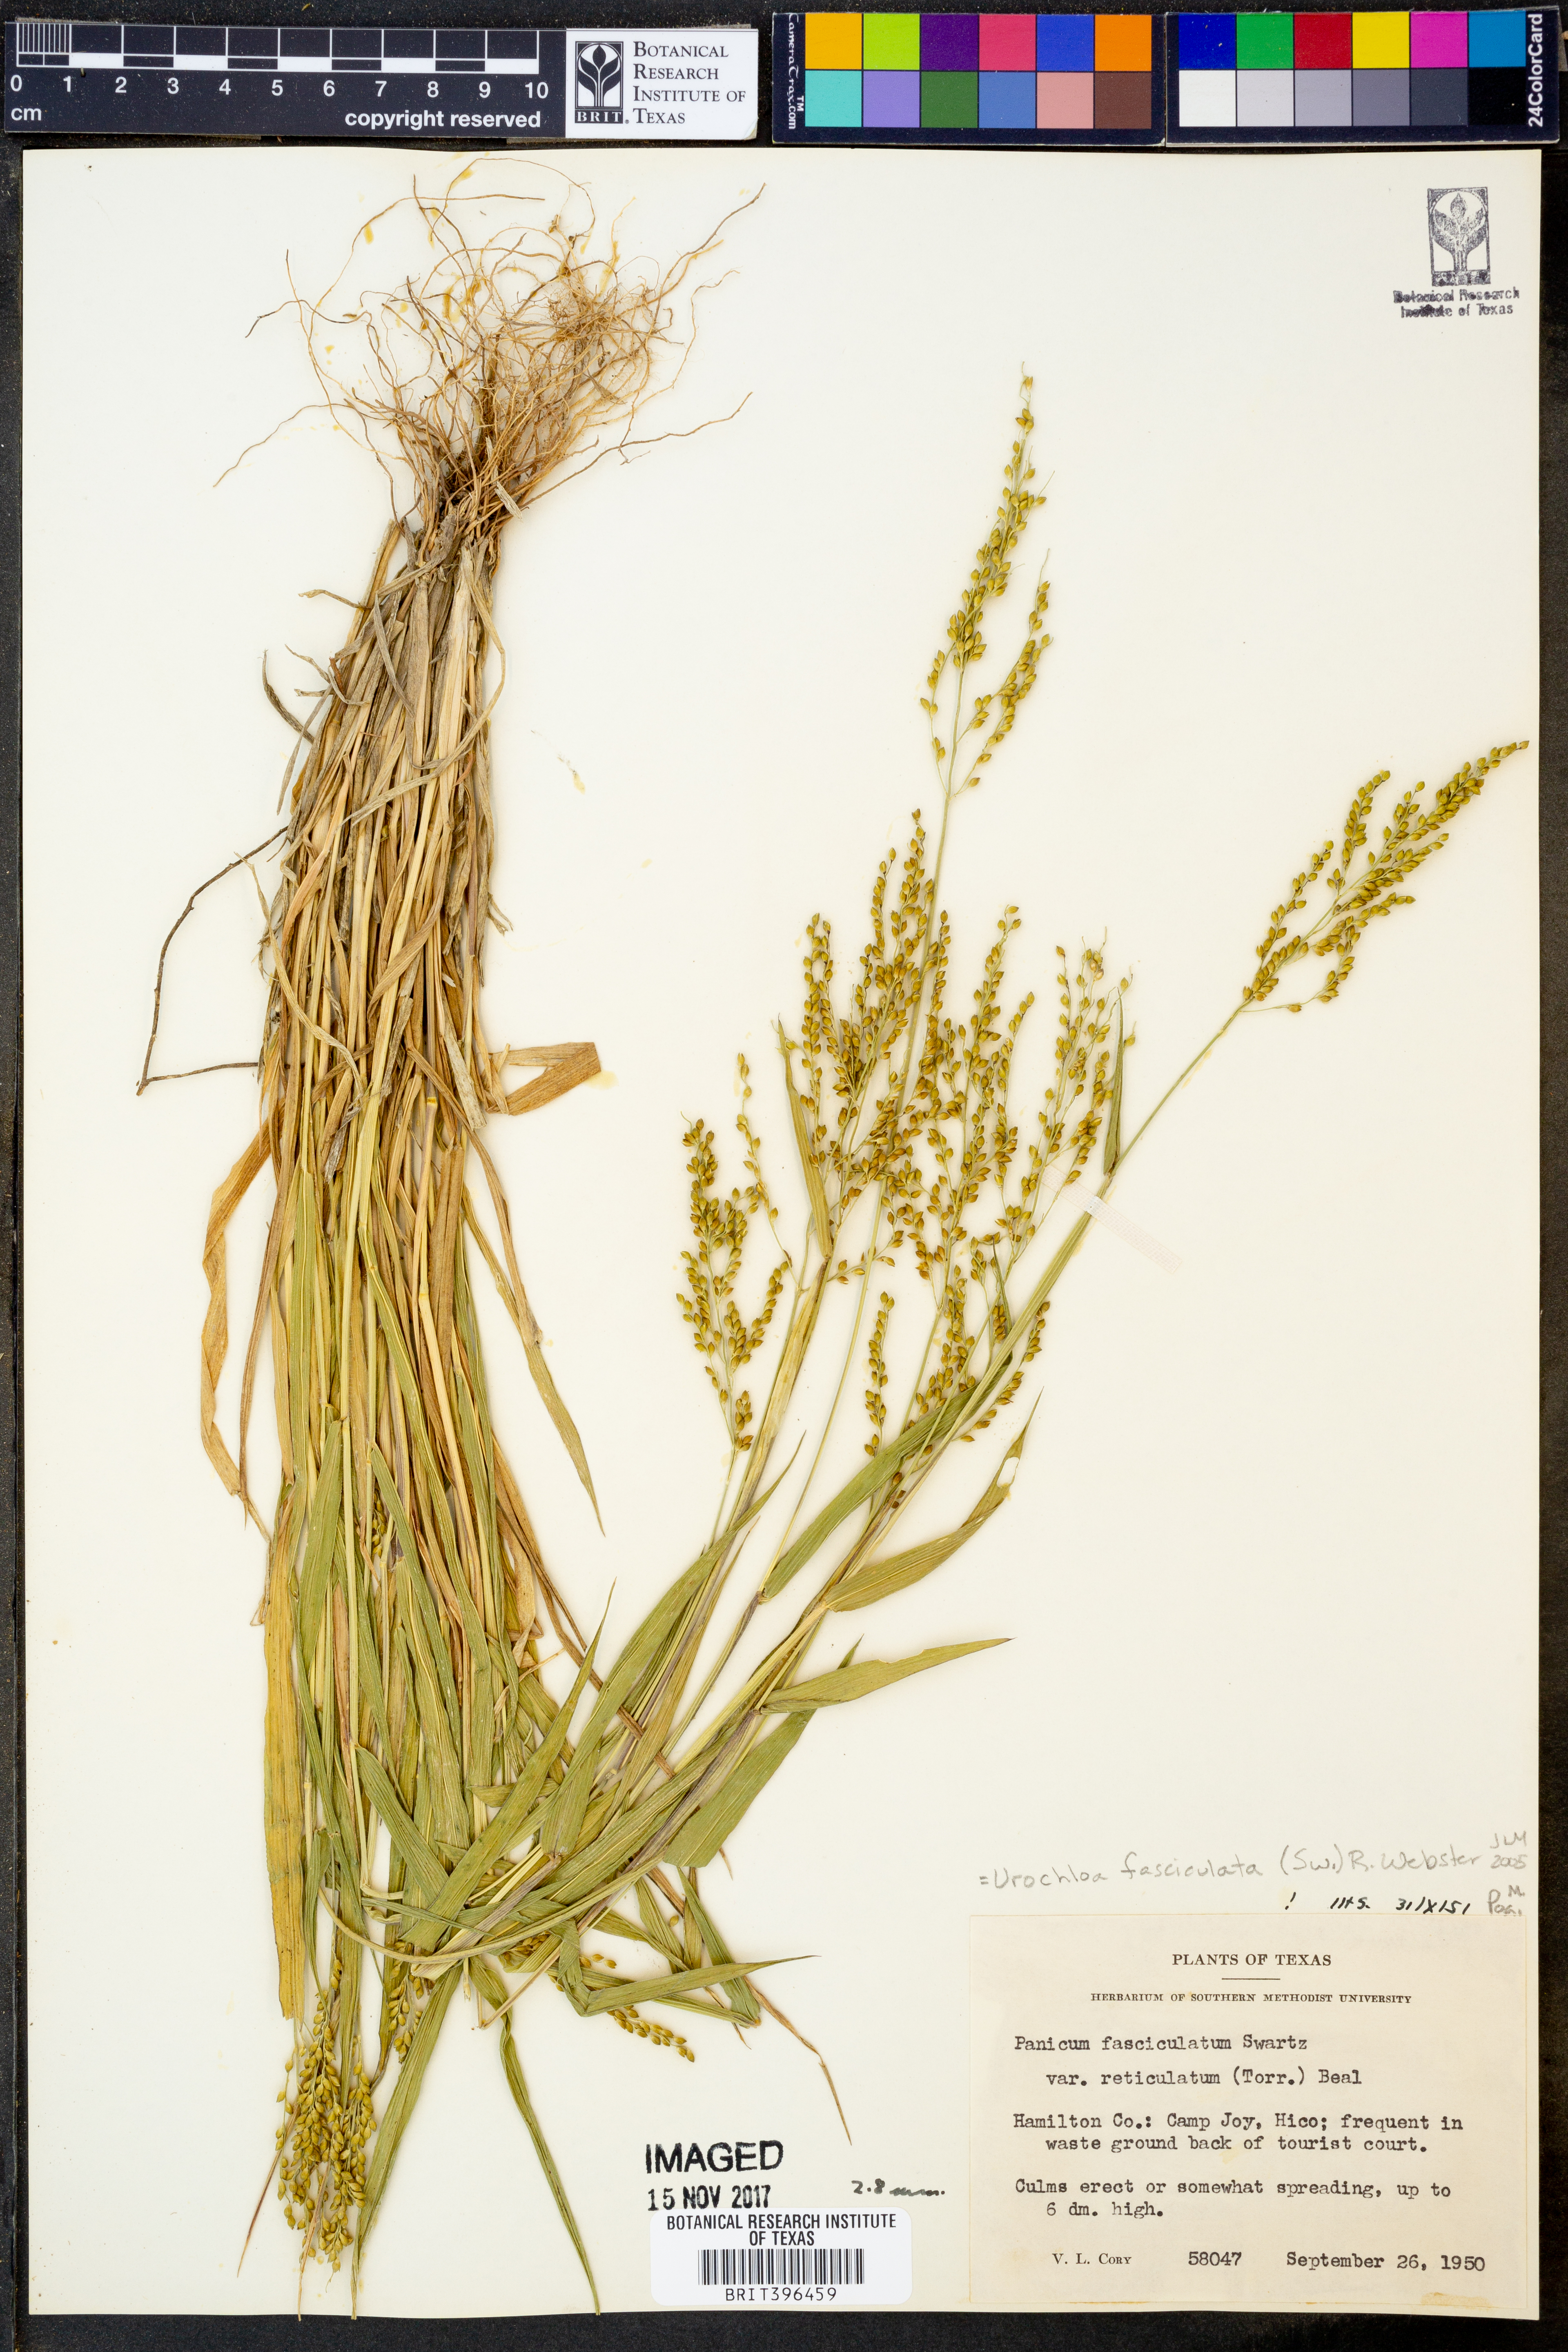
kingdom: Plantae
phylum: Tracheophyta
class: Liliopsida
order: Poales
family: Poaceae
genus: Urochloa
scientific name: Urochloa fusca
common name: Browntop signal grass
